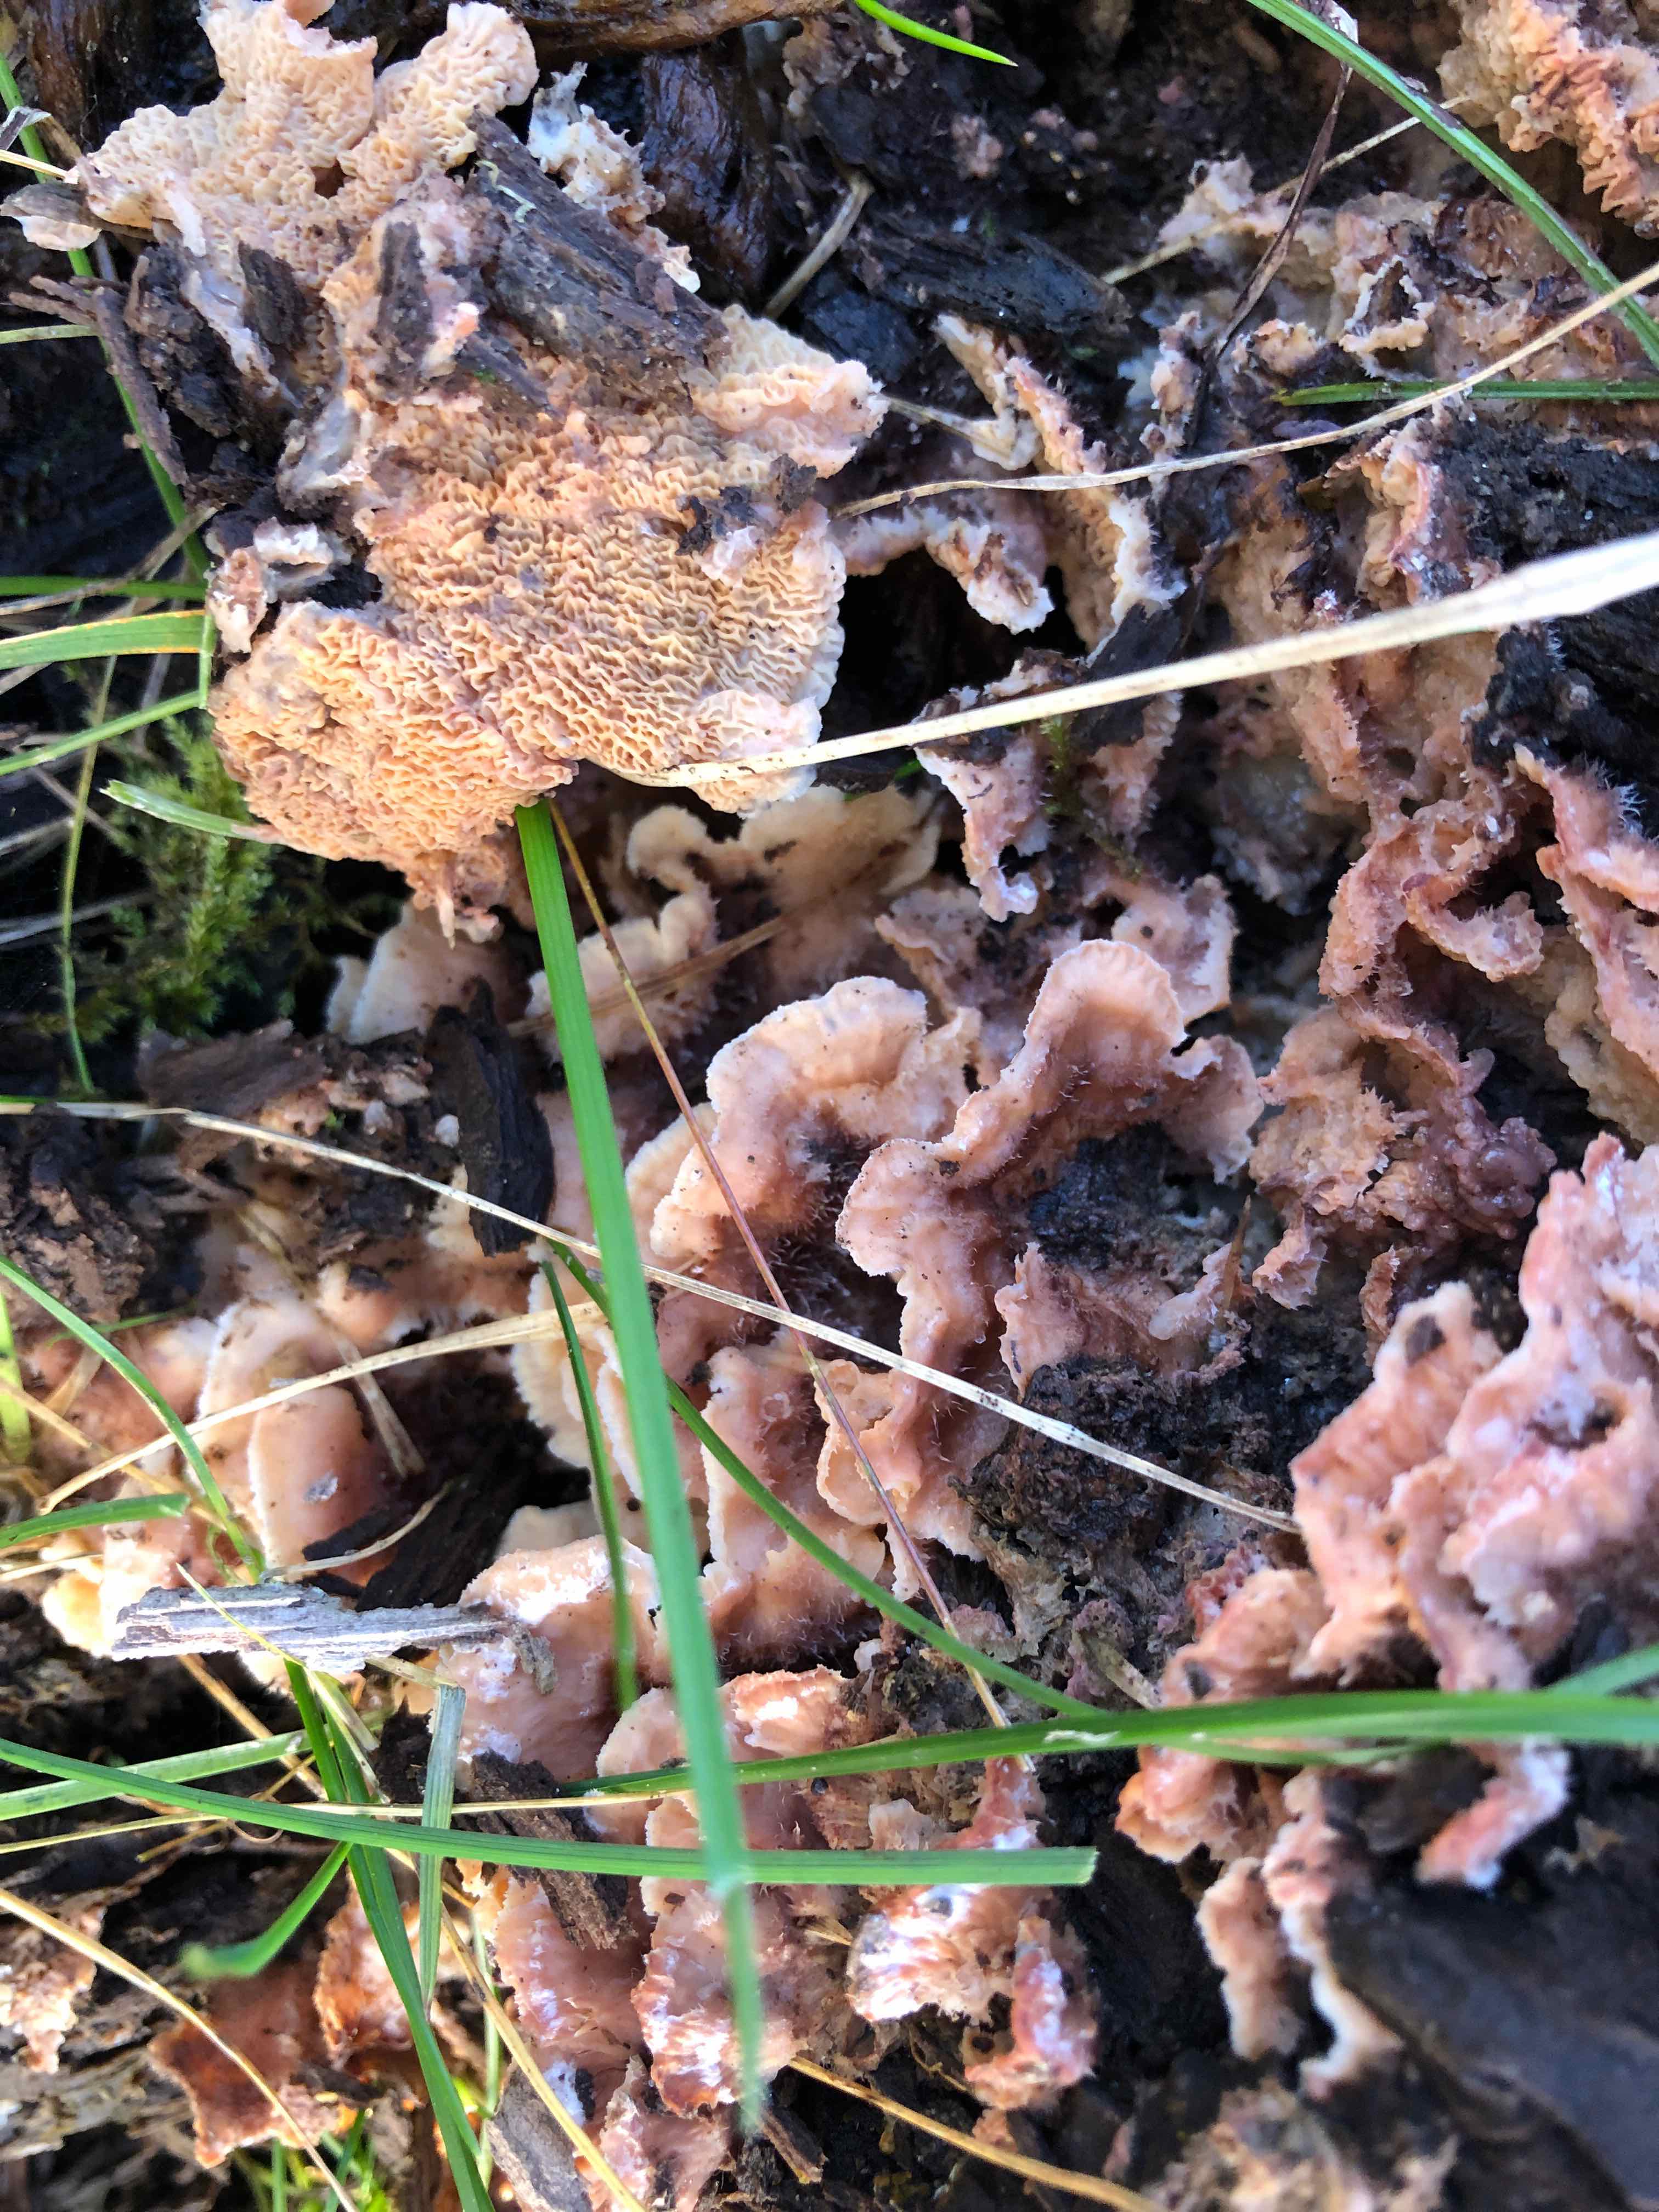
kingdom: Fungi
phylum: Basidiomycota
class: Agaricomycetes
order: Polyporales
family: Meruliaceae
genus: Phlebia
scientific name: Phlebia tremellosa
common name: bævrende åresvamp
